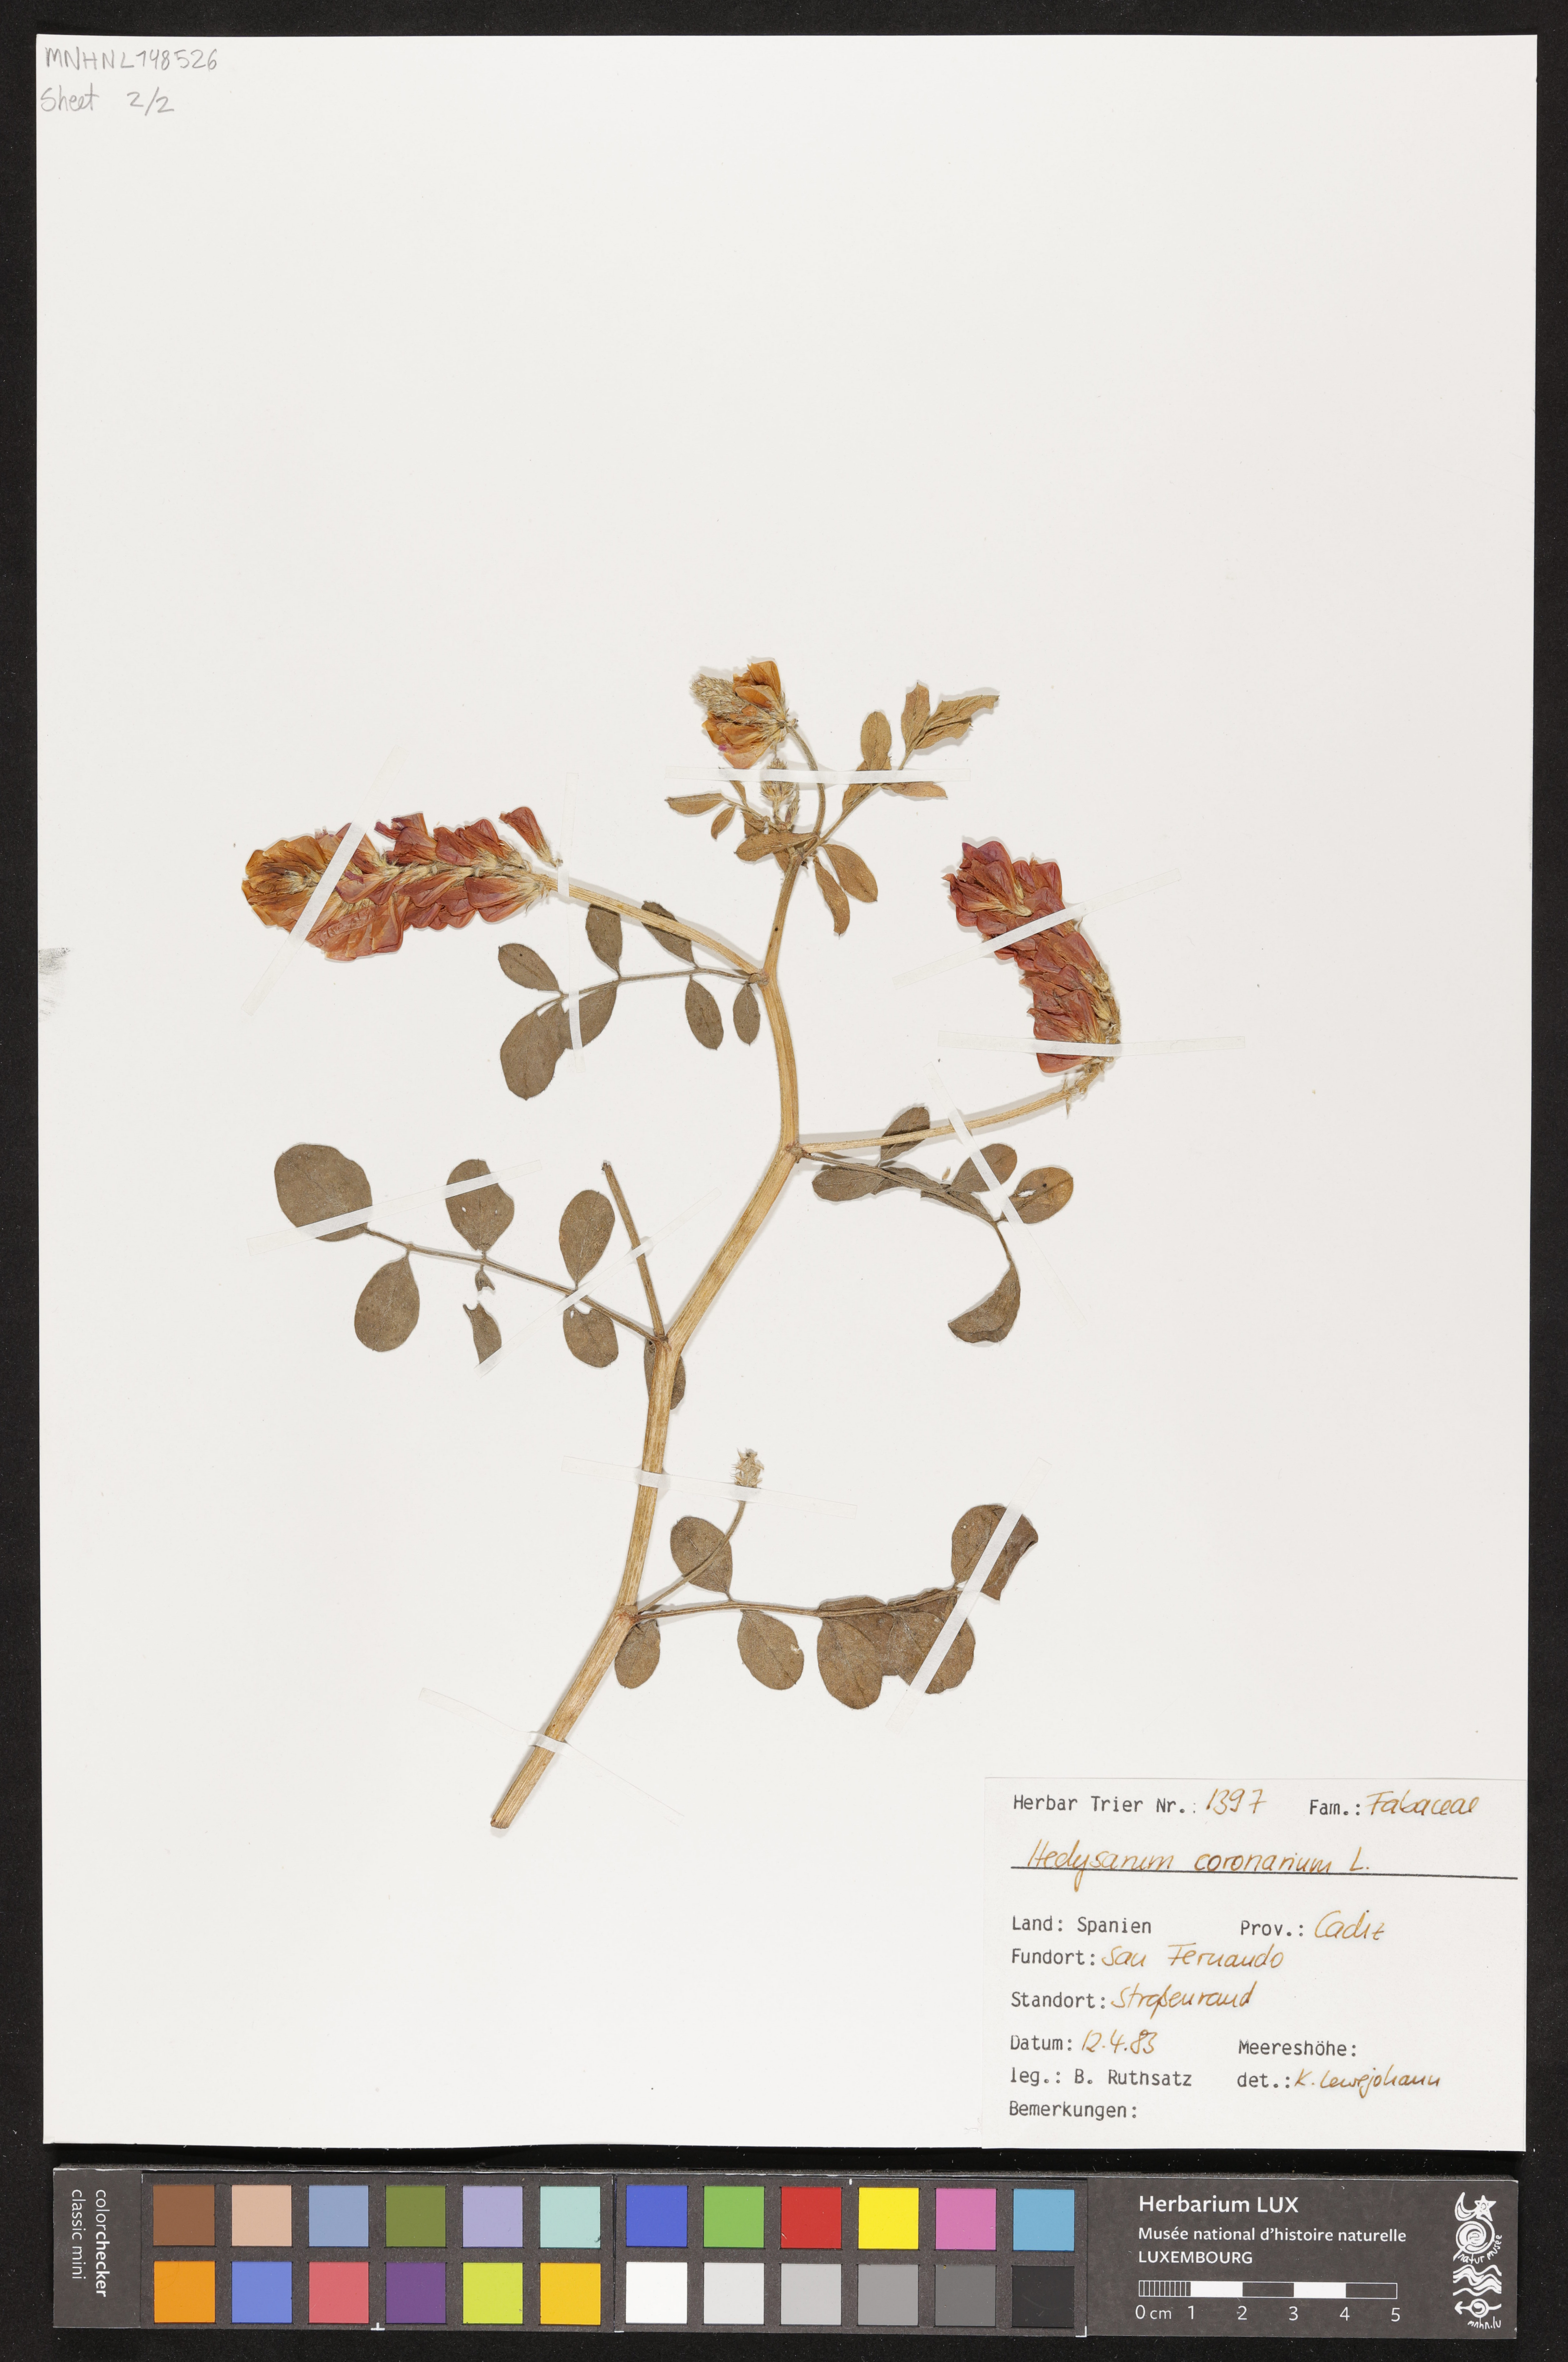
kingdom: Plantae
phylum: Tracheophyta
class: Magnoliopsida
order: Fabales
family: Fabaceae
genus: Sulla
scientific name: Sulla coronaria
